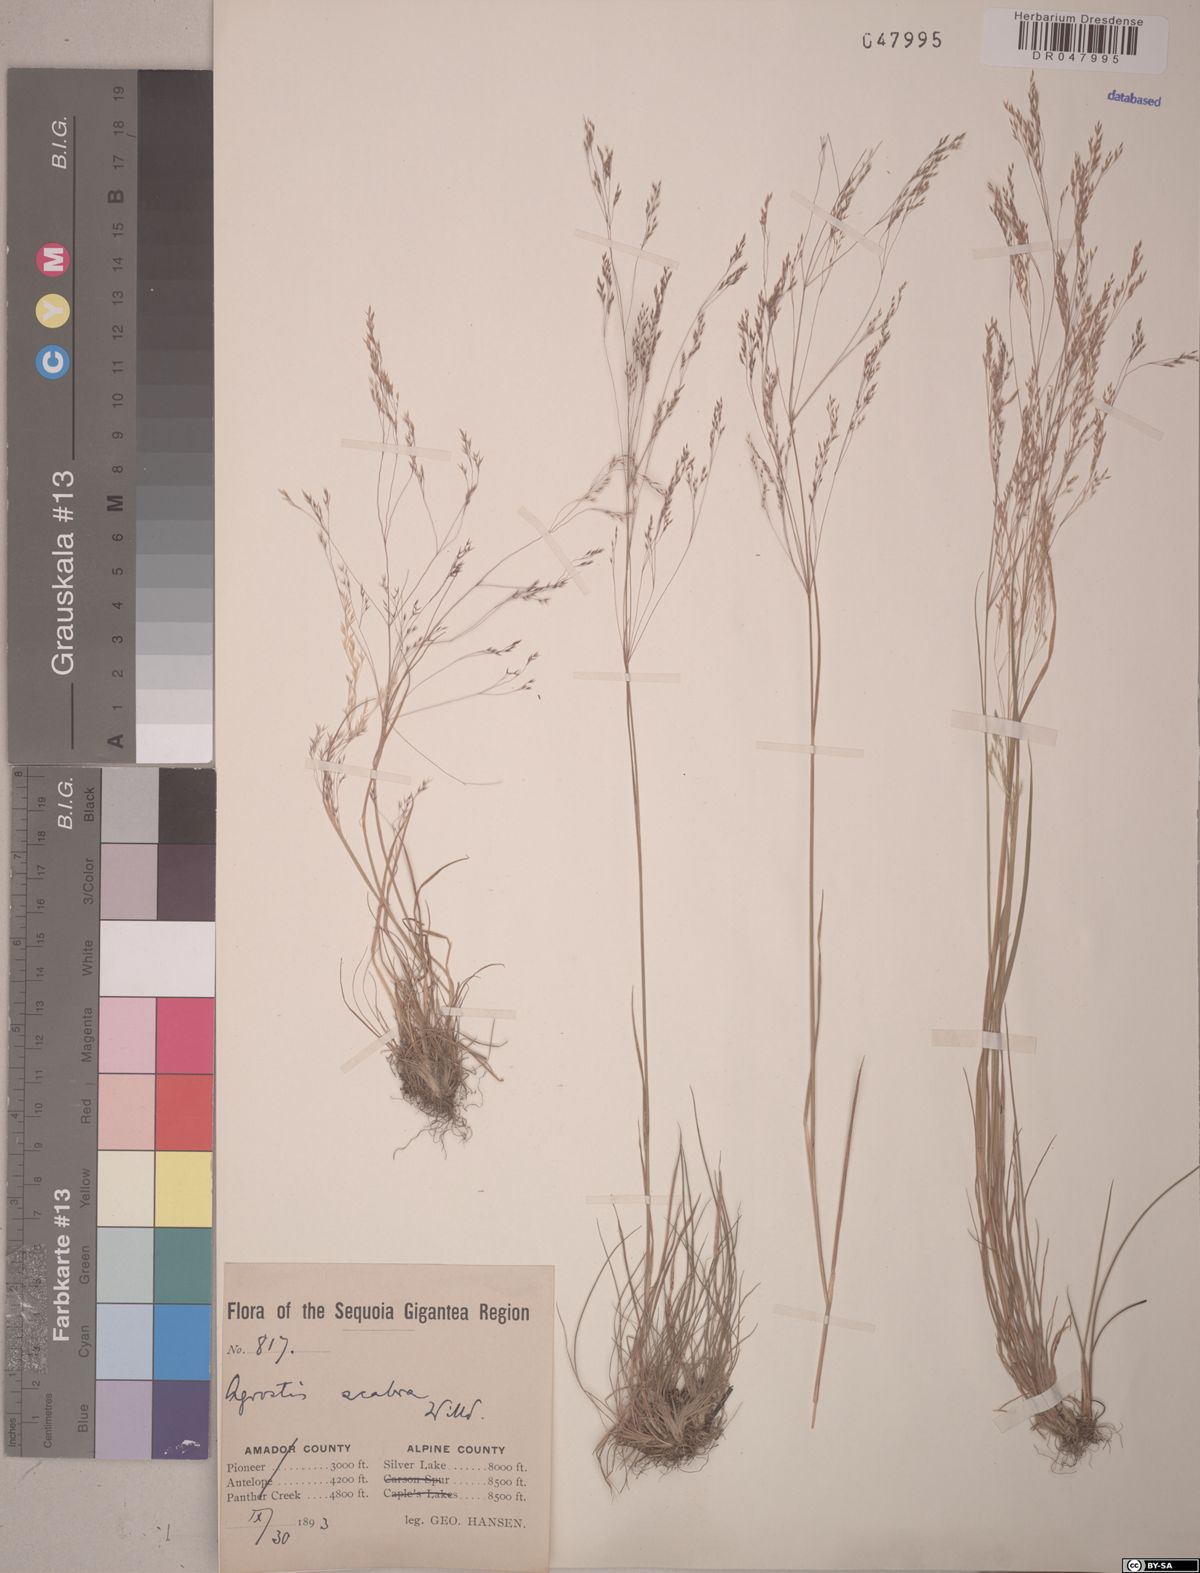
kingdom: Plantae
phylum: Tracheophyta
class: Liliopsida
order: Poales
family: Poaceae
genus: Agrostis
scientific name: Agrostis scabra
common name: Rough bent
